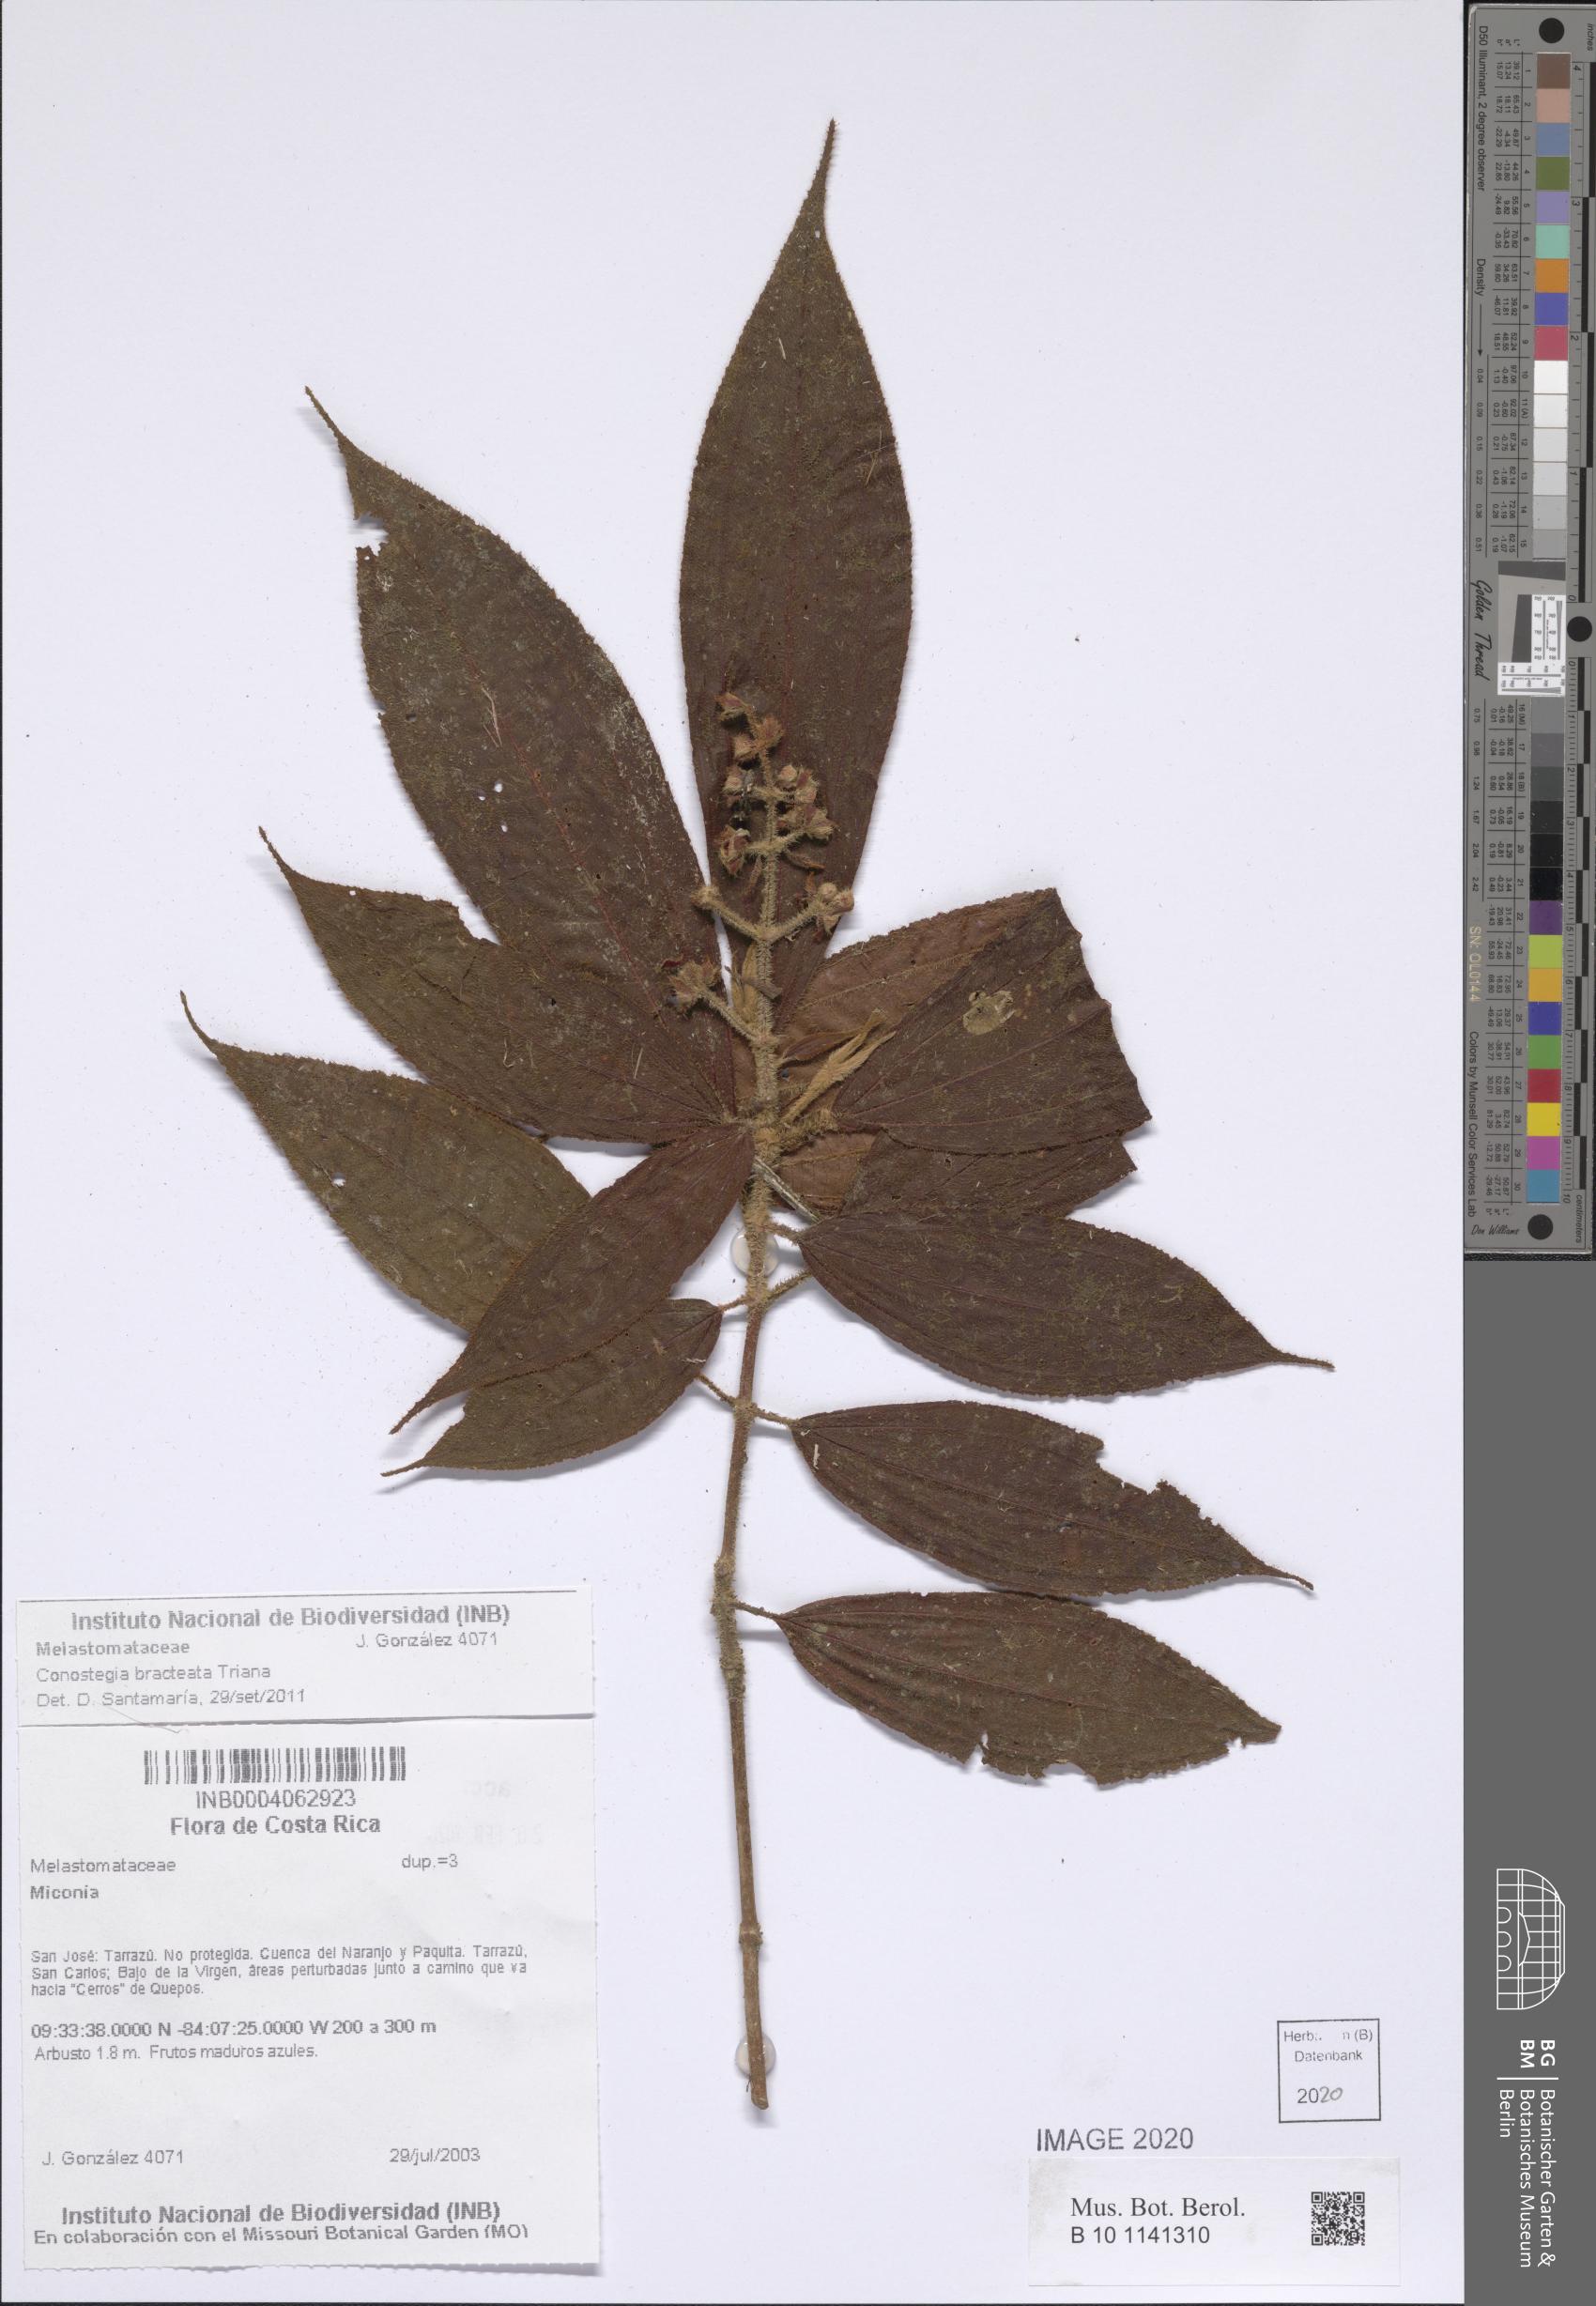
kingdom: Plantae
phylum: Tracheophyta
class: Magnoliopsida
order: Myrtales
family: Melastomataceae
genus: Miconia
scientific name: Miconia conobracteata
